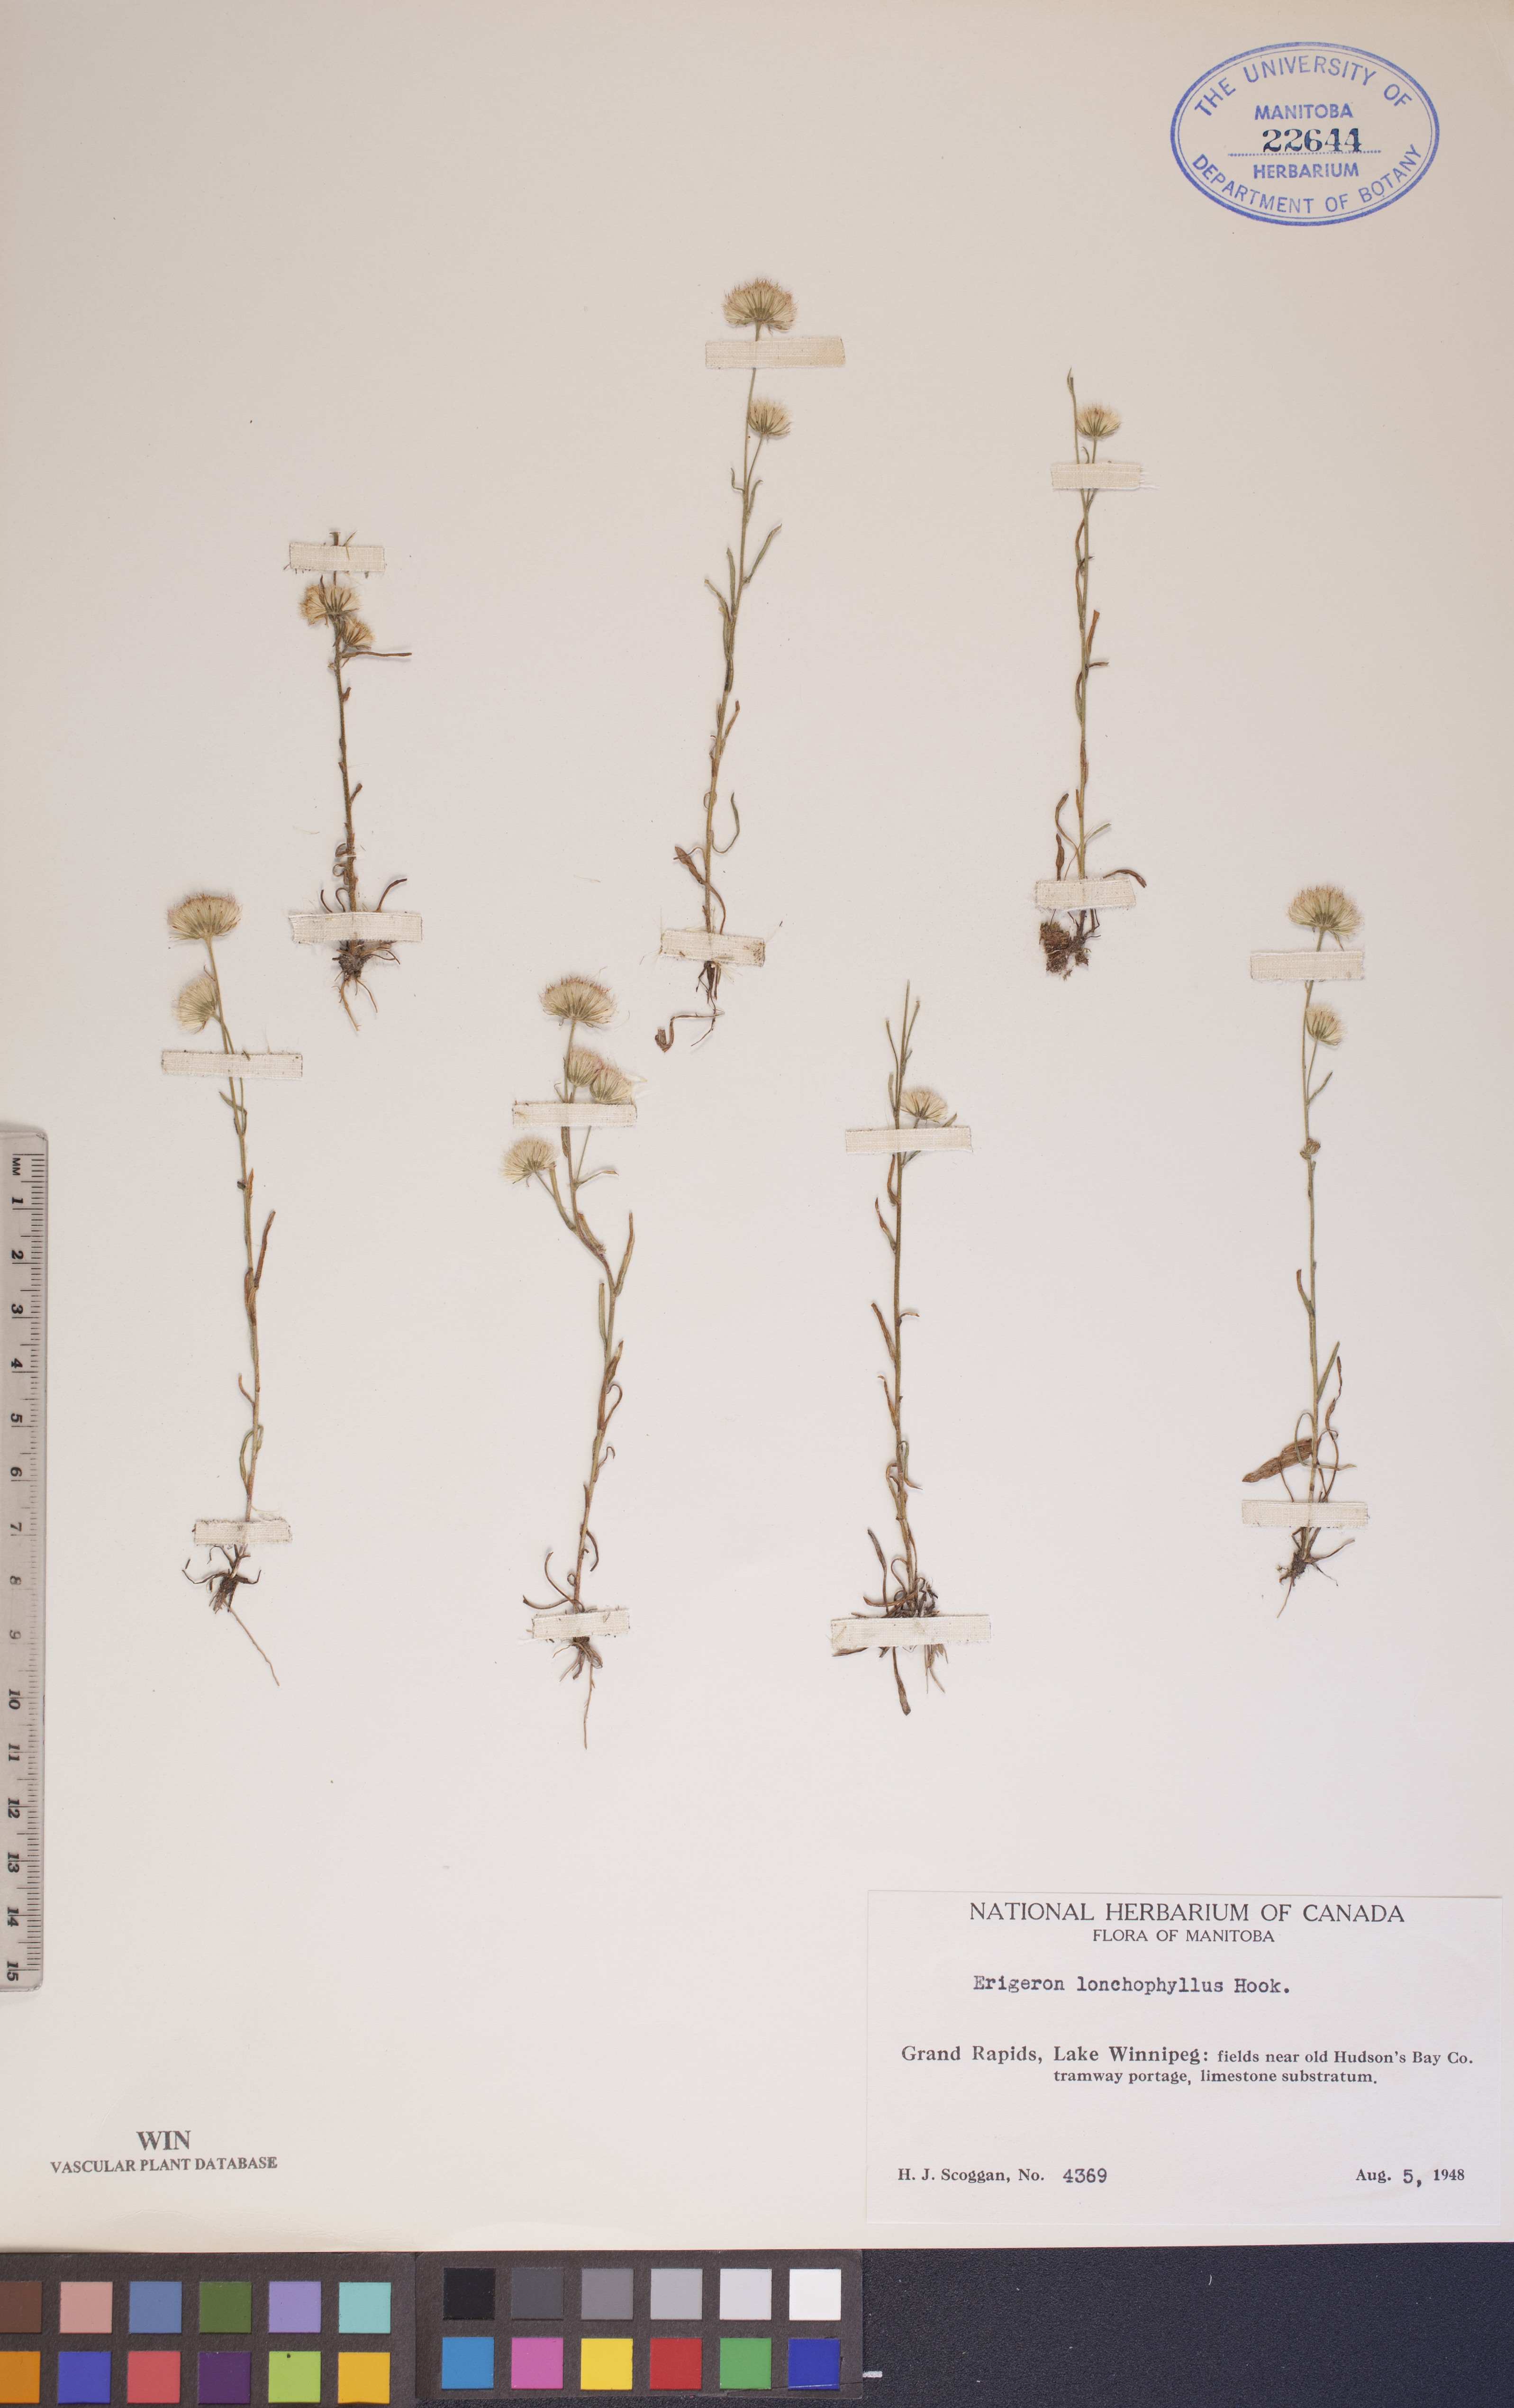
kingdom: Plantae
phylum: Tracheophyta
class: Magnoliopsida
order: Asterales
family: Asteraceae
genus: Erigeron
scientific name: Erigeron lonchophyllus
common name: Short-ray fleabane
